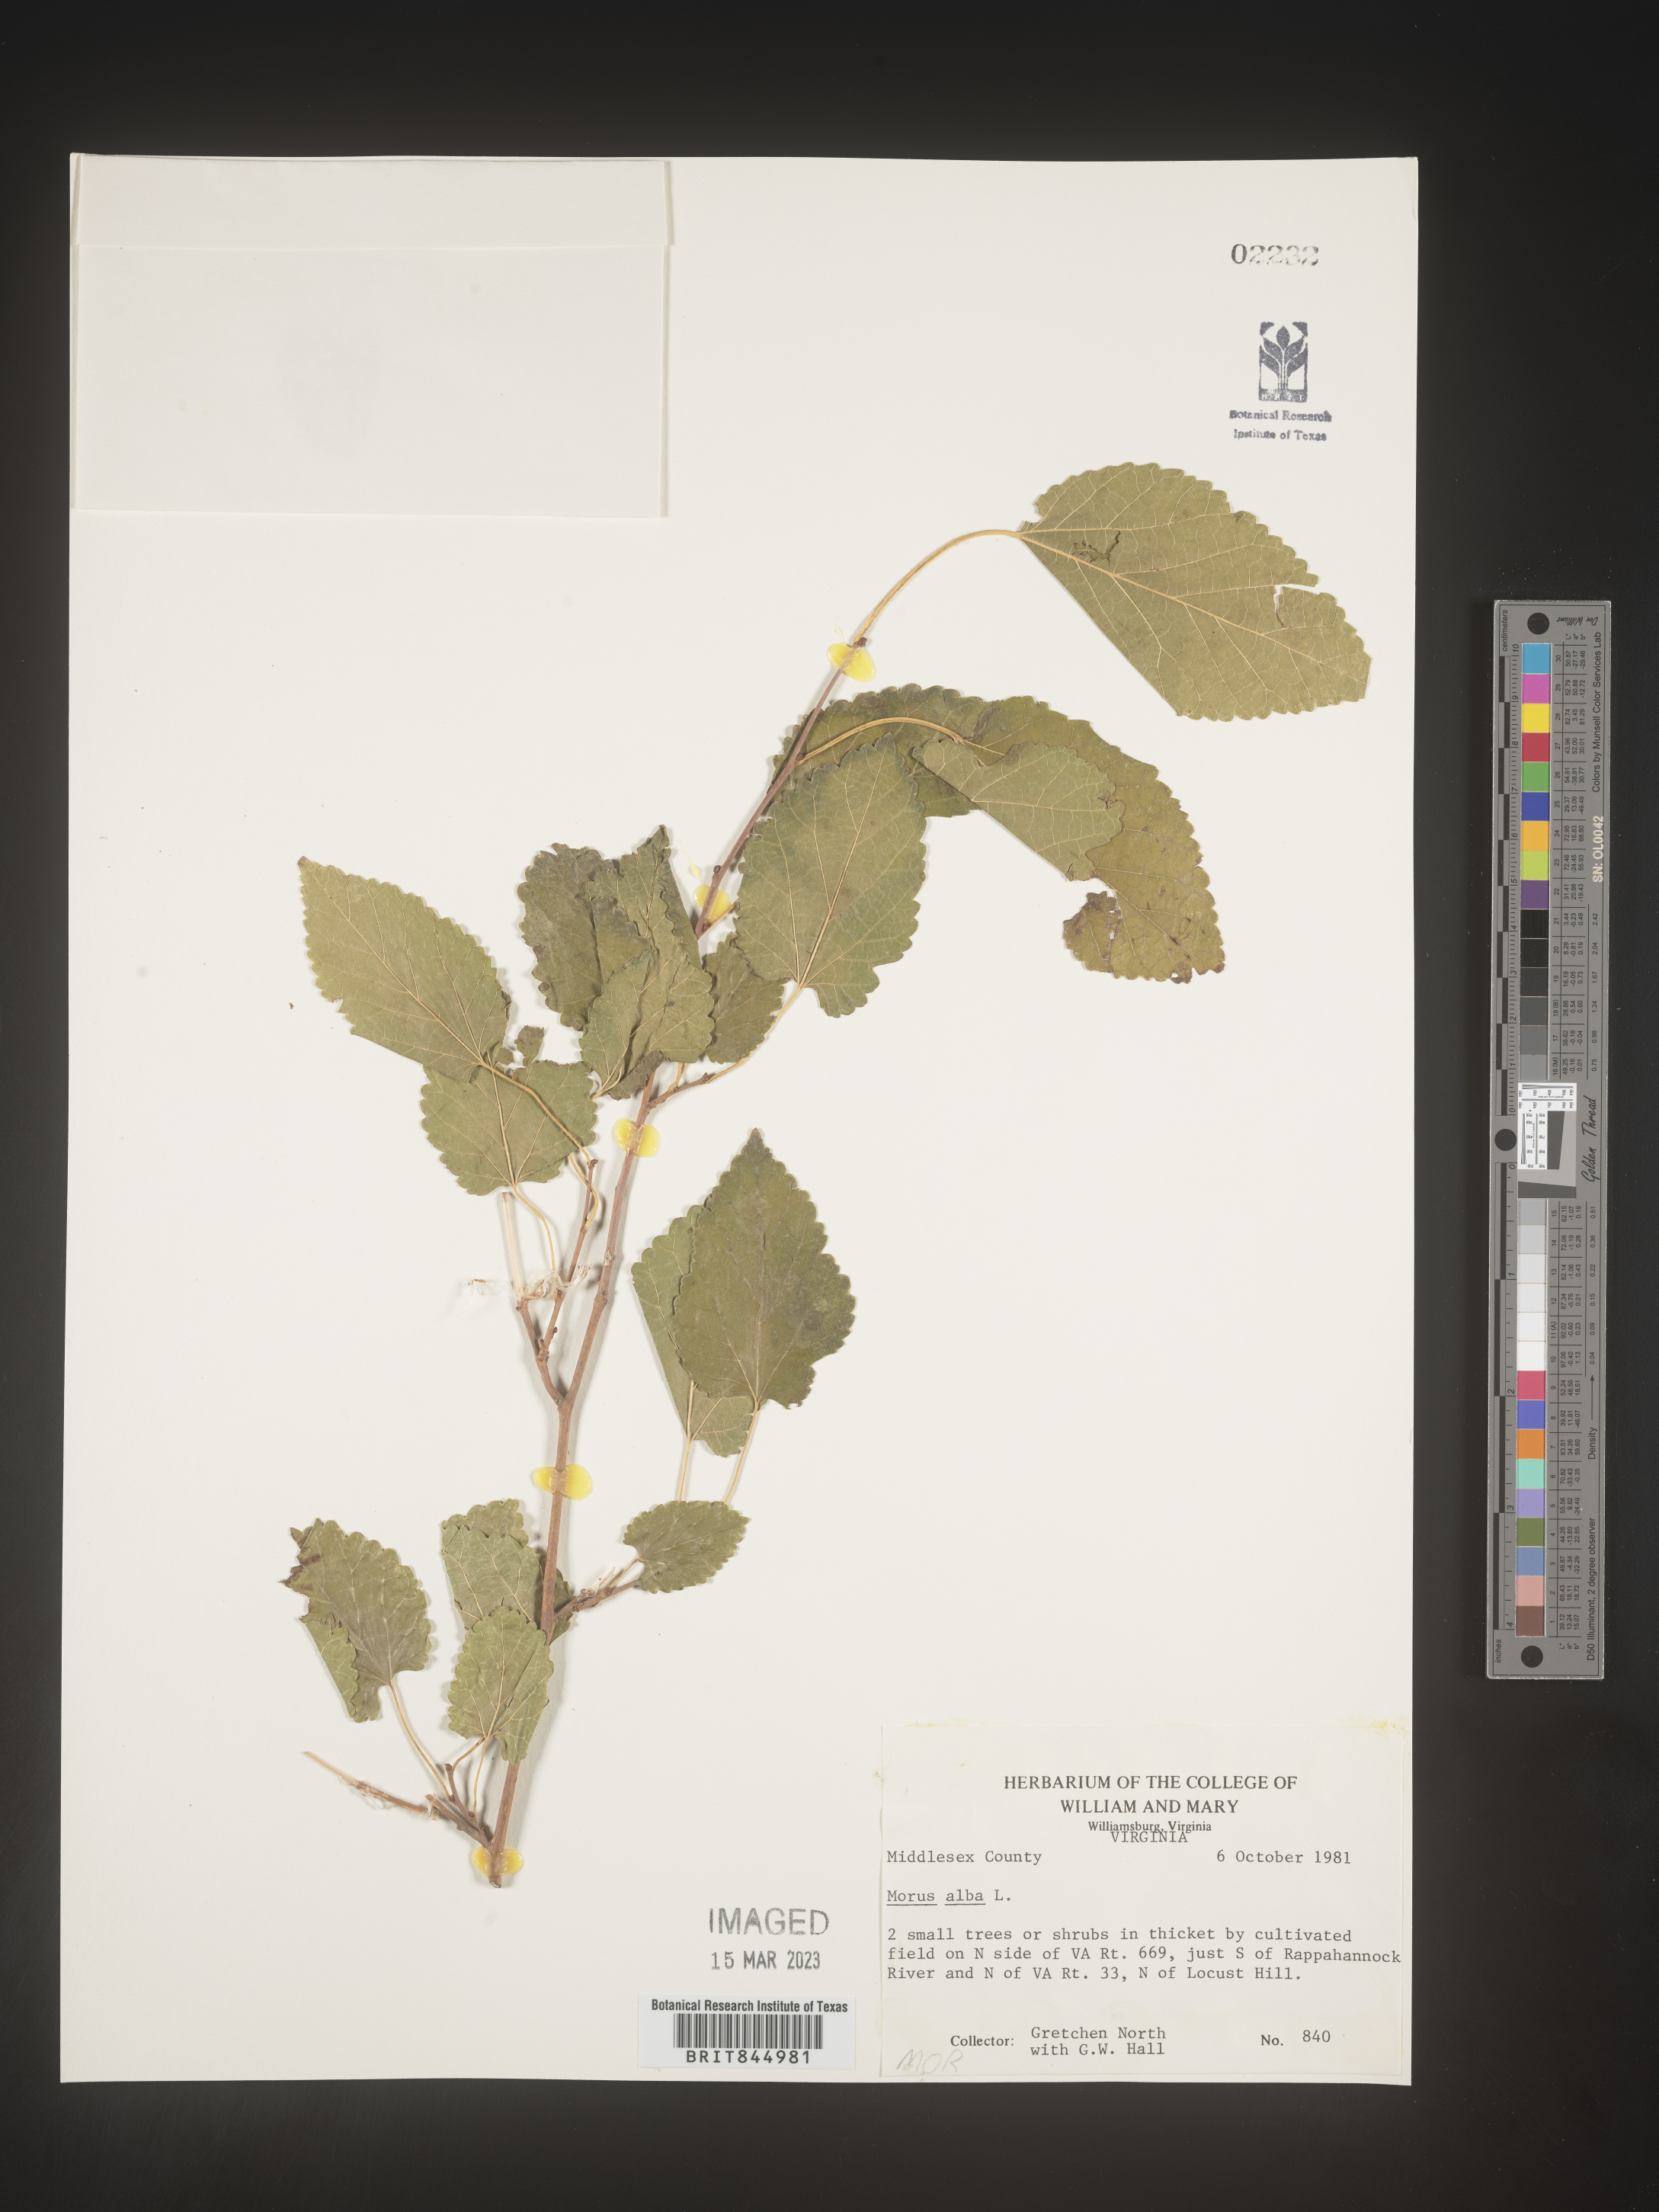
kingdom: Plantae
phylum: Tracheophyta
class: Magnoliopsida
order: Rosales
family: Moraceae
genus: Morus
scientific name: Morus alba
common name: White mulberry
